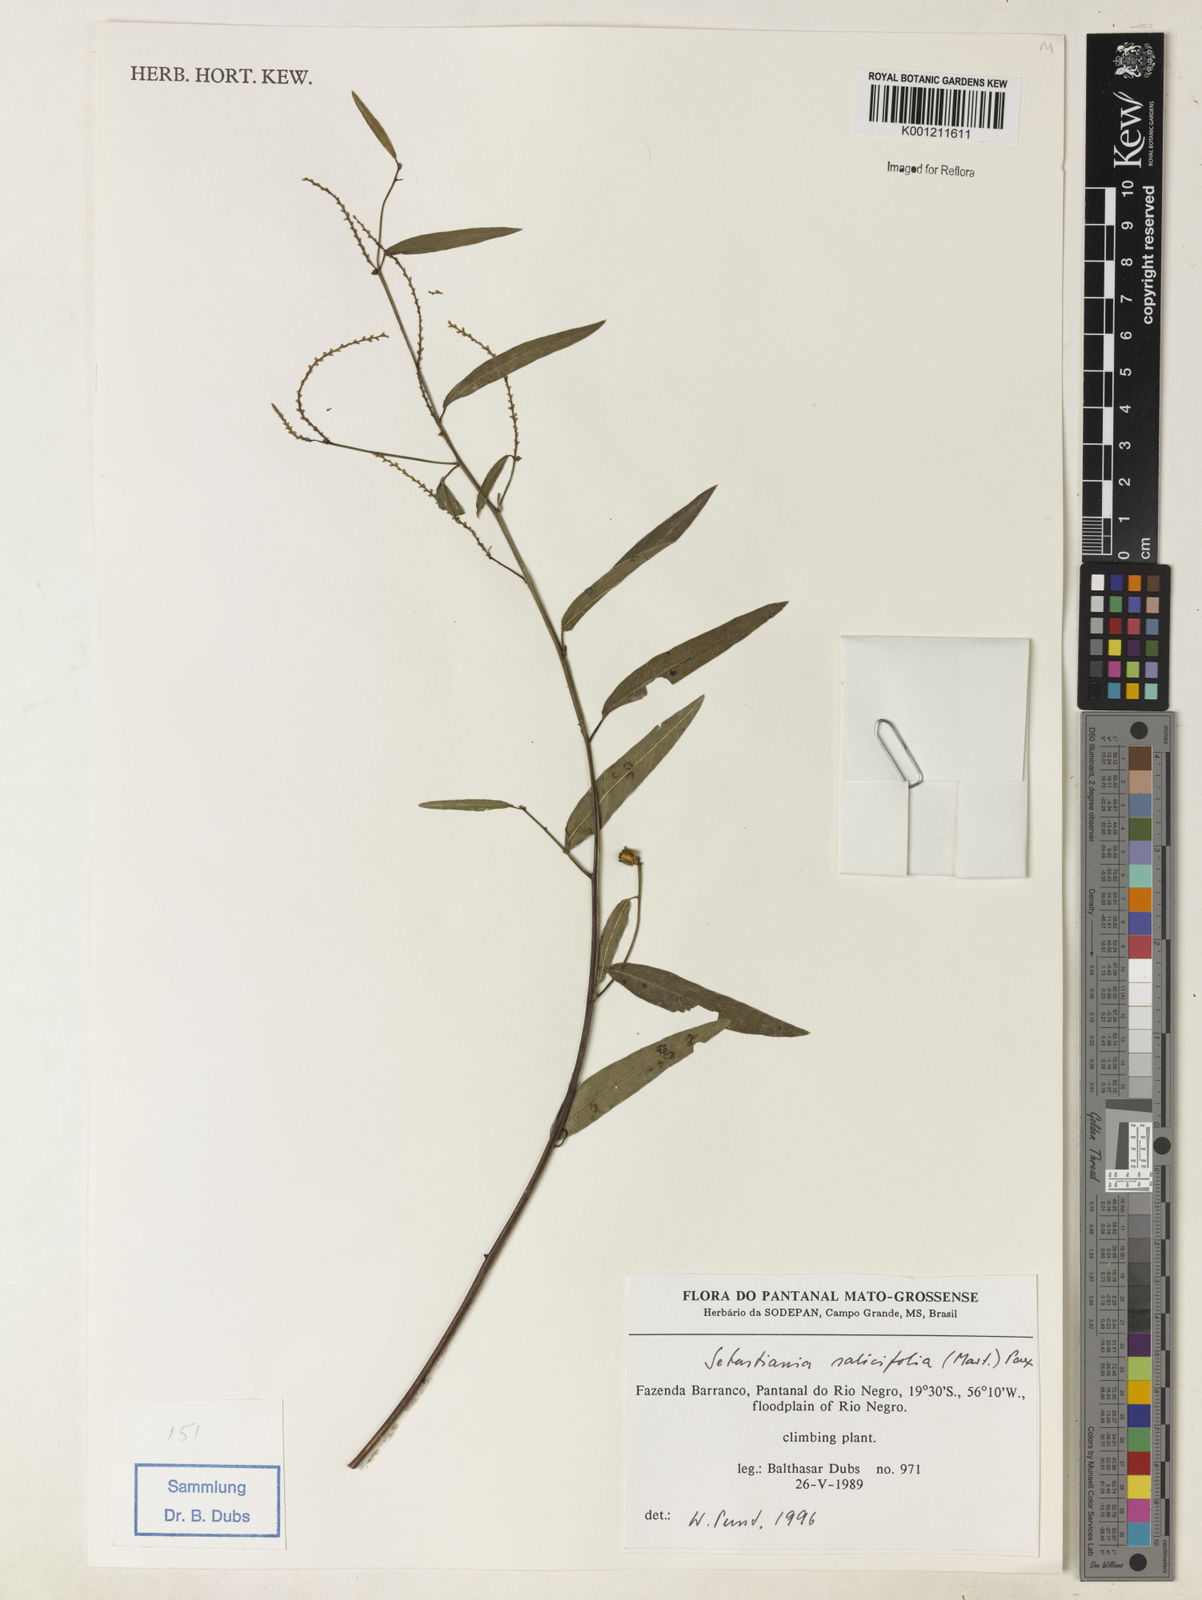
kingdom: Plantae
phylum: Tracheophyta
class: Magnoliopsida
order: Malpighiales
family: Euphorbiaceae
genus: Microstachys
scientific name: Microstachys
